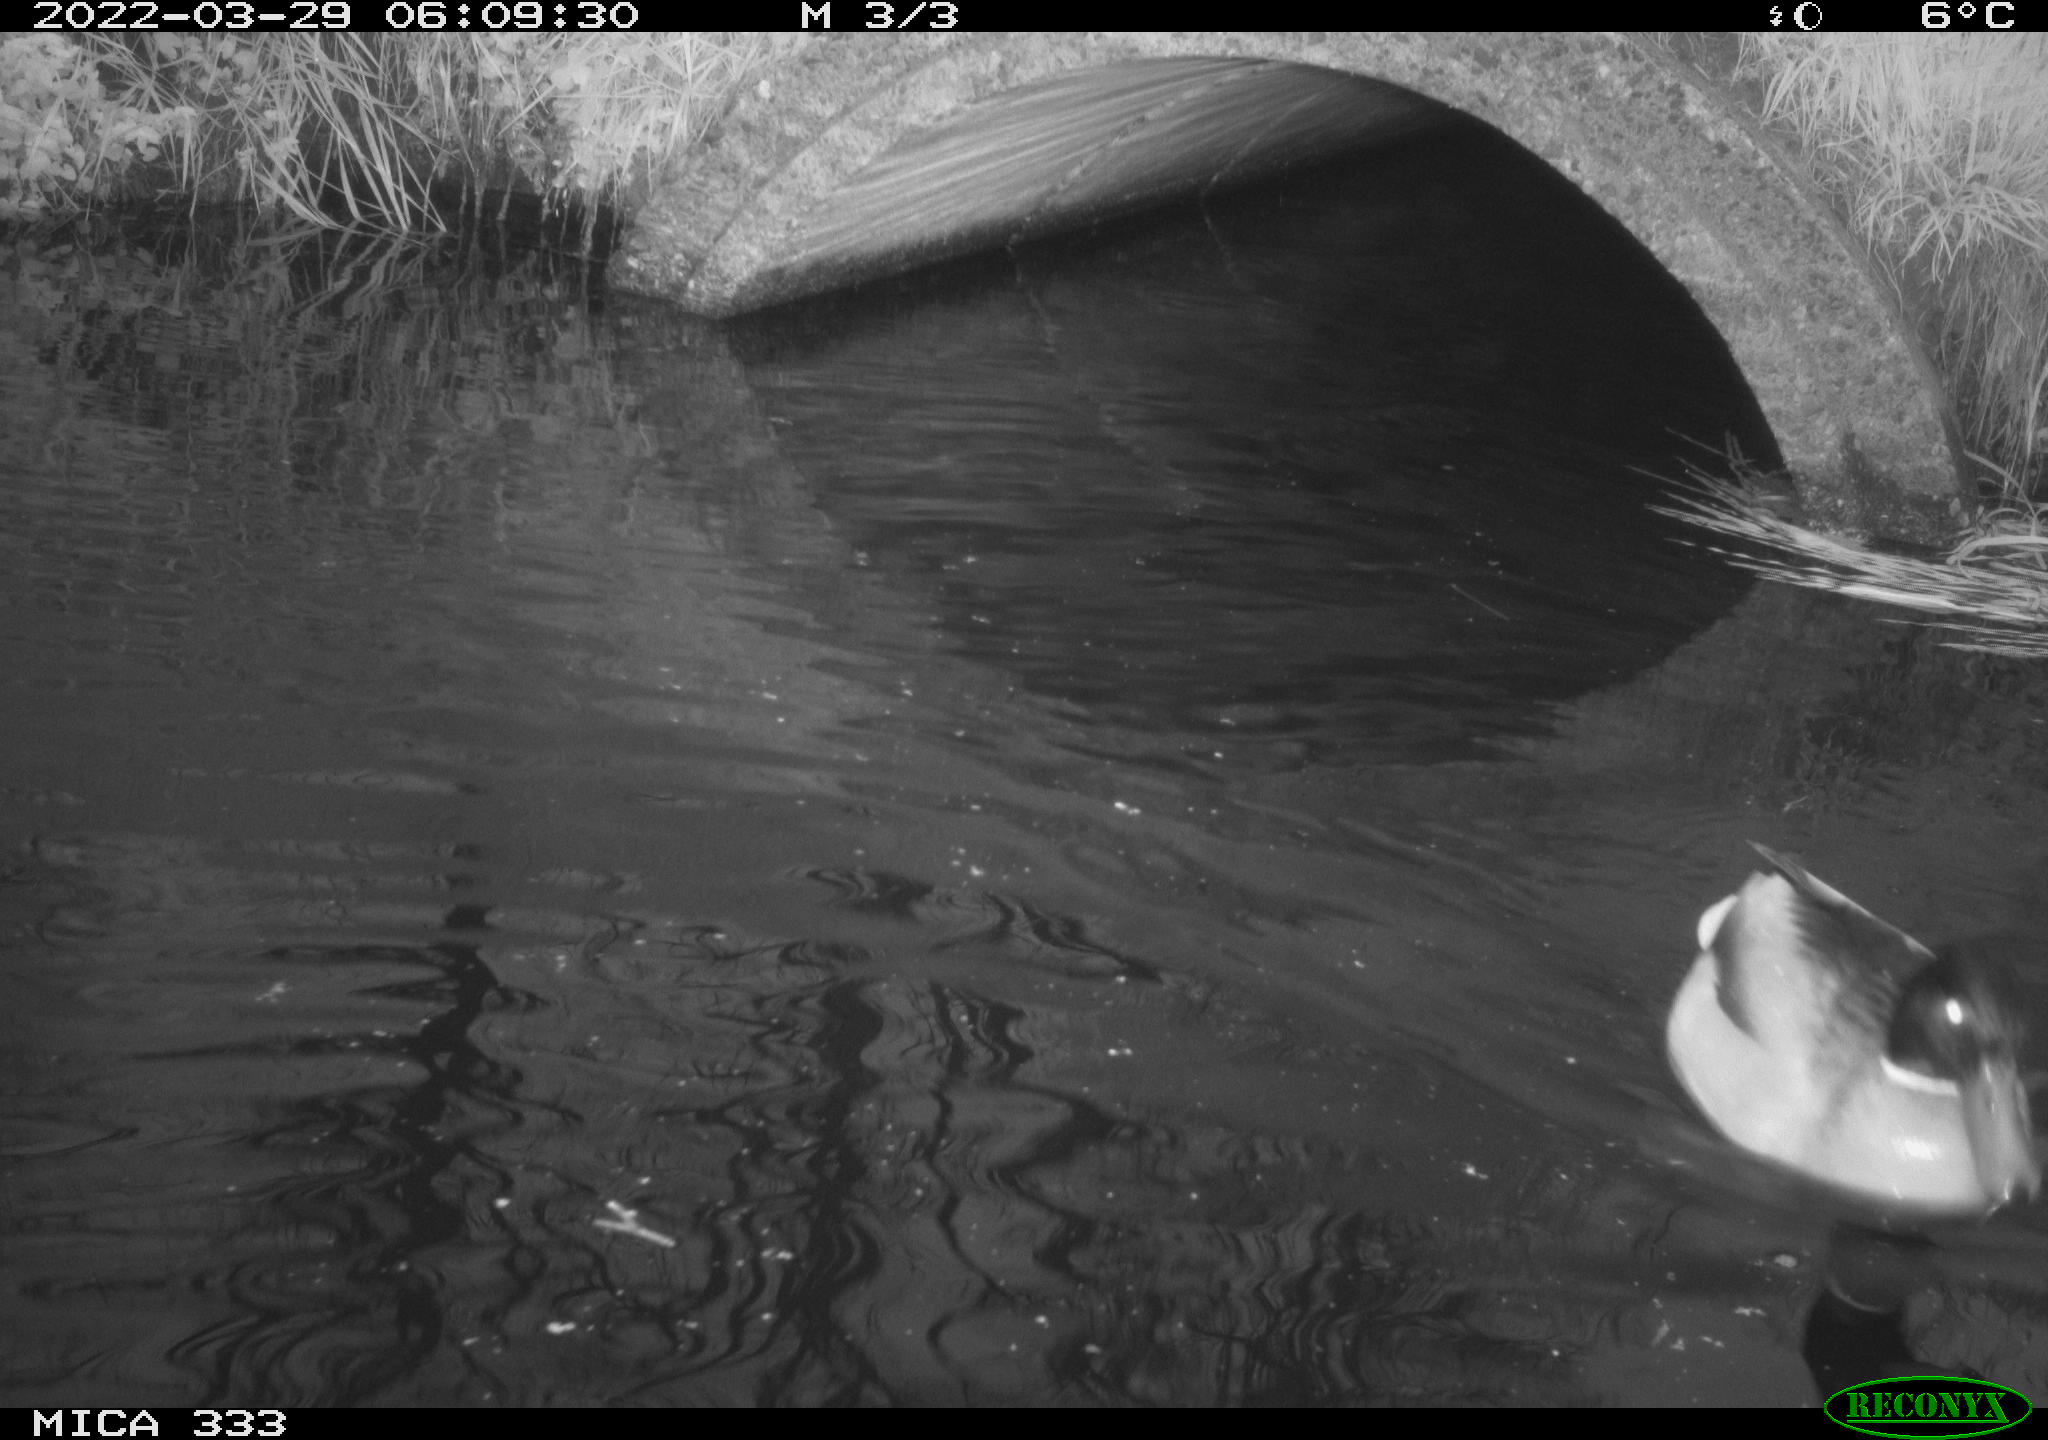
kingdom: Animalia
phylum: Chordata
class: Aves
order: Anseriformes
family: Anatidae
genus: Anas
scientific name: Anas platyrhynchos
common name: Mallard
